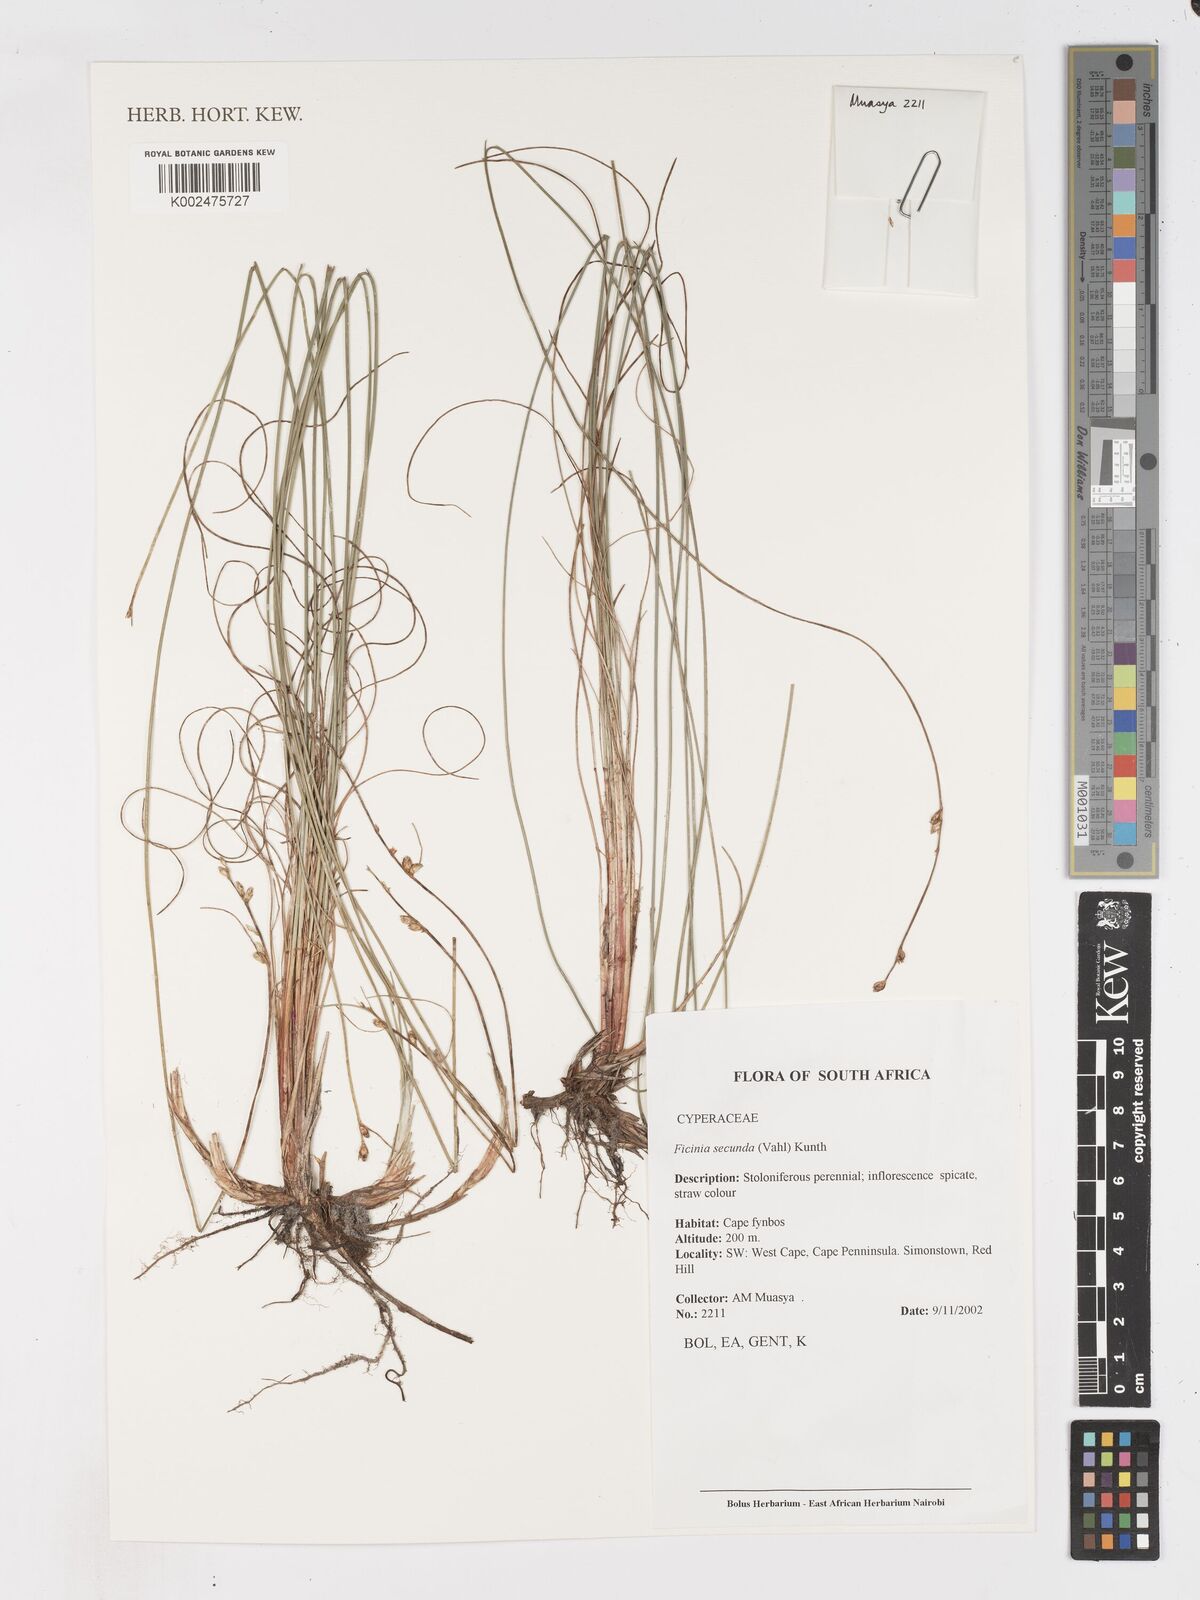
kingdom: Plantae
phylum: Tracheophyta
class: Liliopsida
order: Poales
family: Cyperaceae
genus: Ficinia
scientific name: Ficinia secunda
